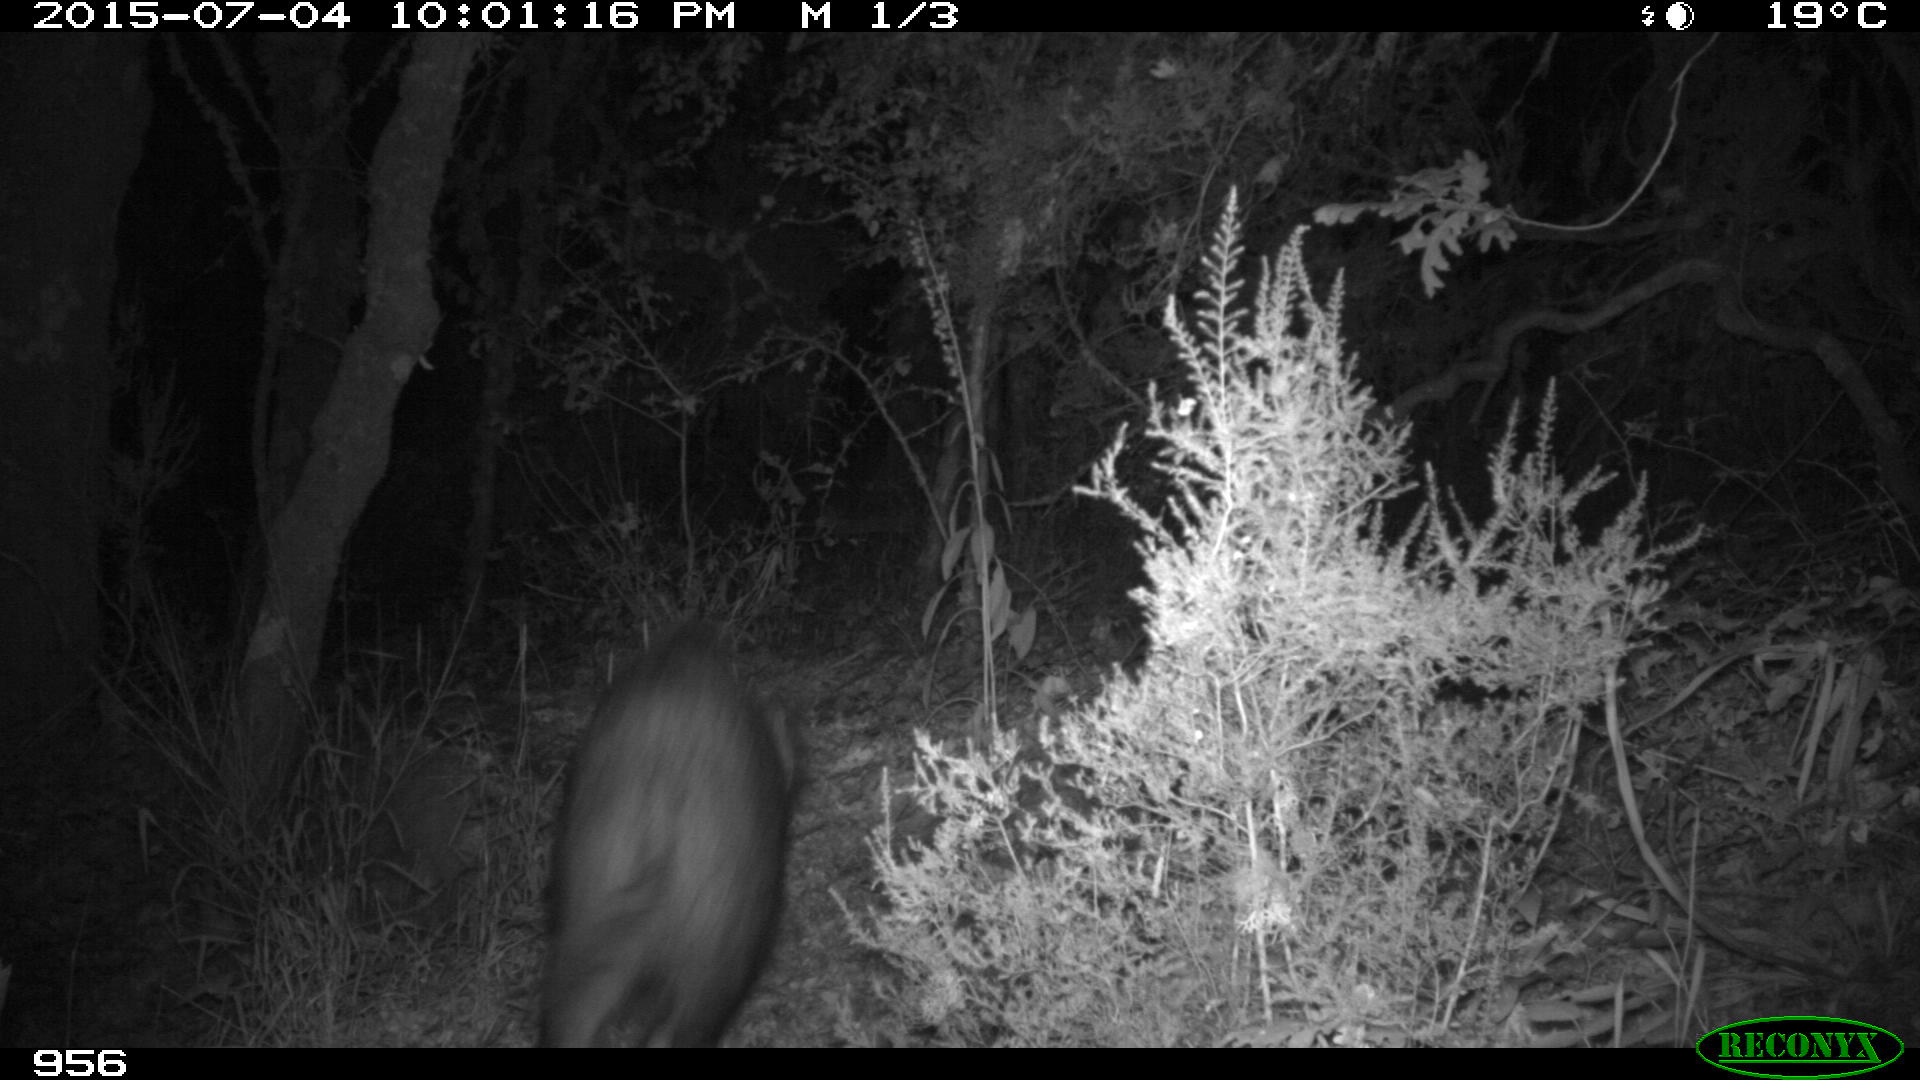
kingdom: Animalia
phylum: Chordata
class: Mammalia
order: Artiodactyla
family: Suidae
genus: Sus
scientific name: Sus scrofa
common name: Wild boar
